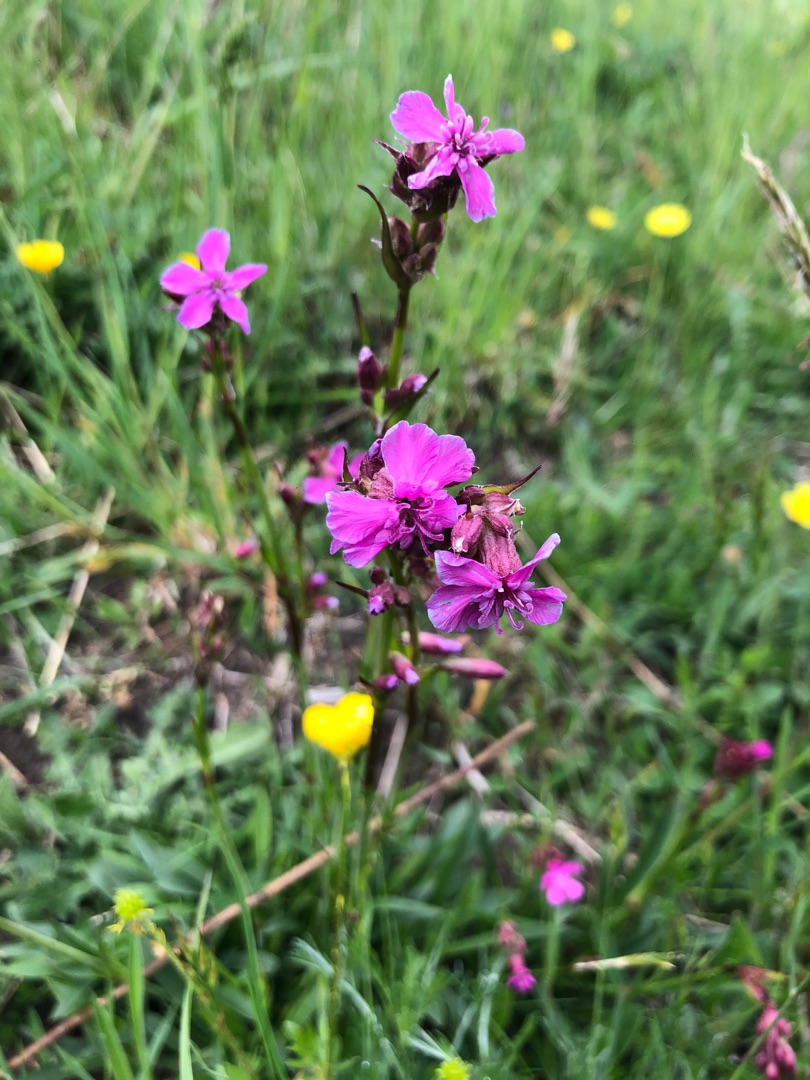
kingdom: Plantae
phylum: Tracheophyta
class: Magnoliopsida
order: Caryophyllales
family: Caryophyllaceae
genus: Viscaria
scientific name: Viscaria vulgaris
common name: Tjærenellike
